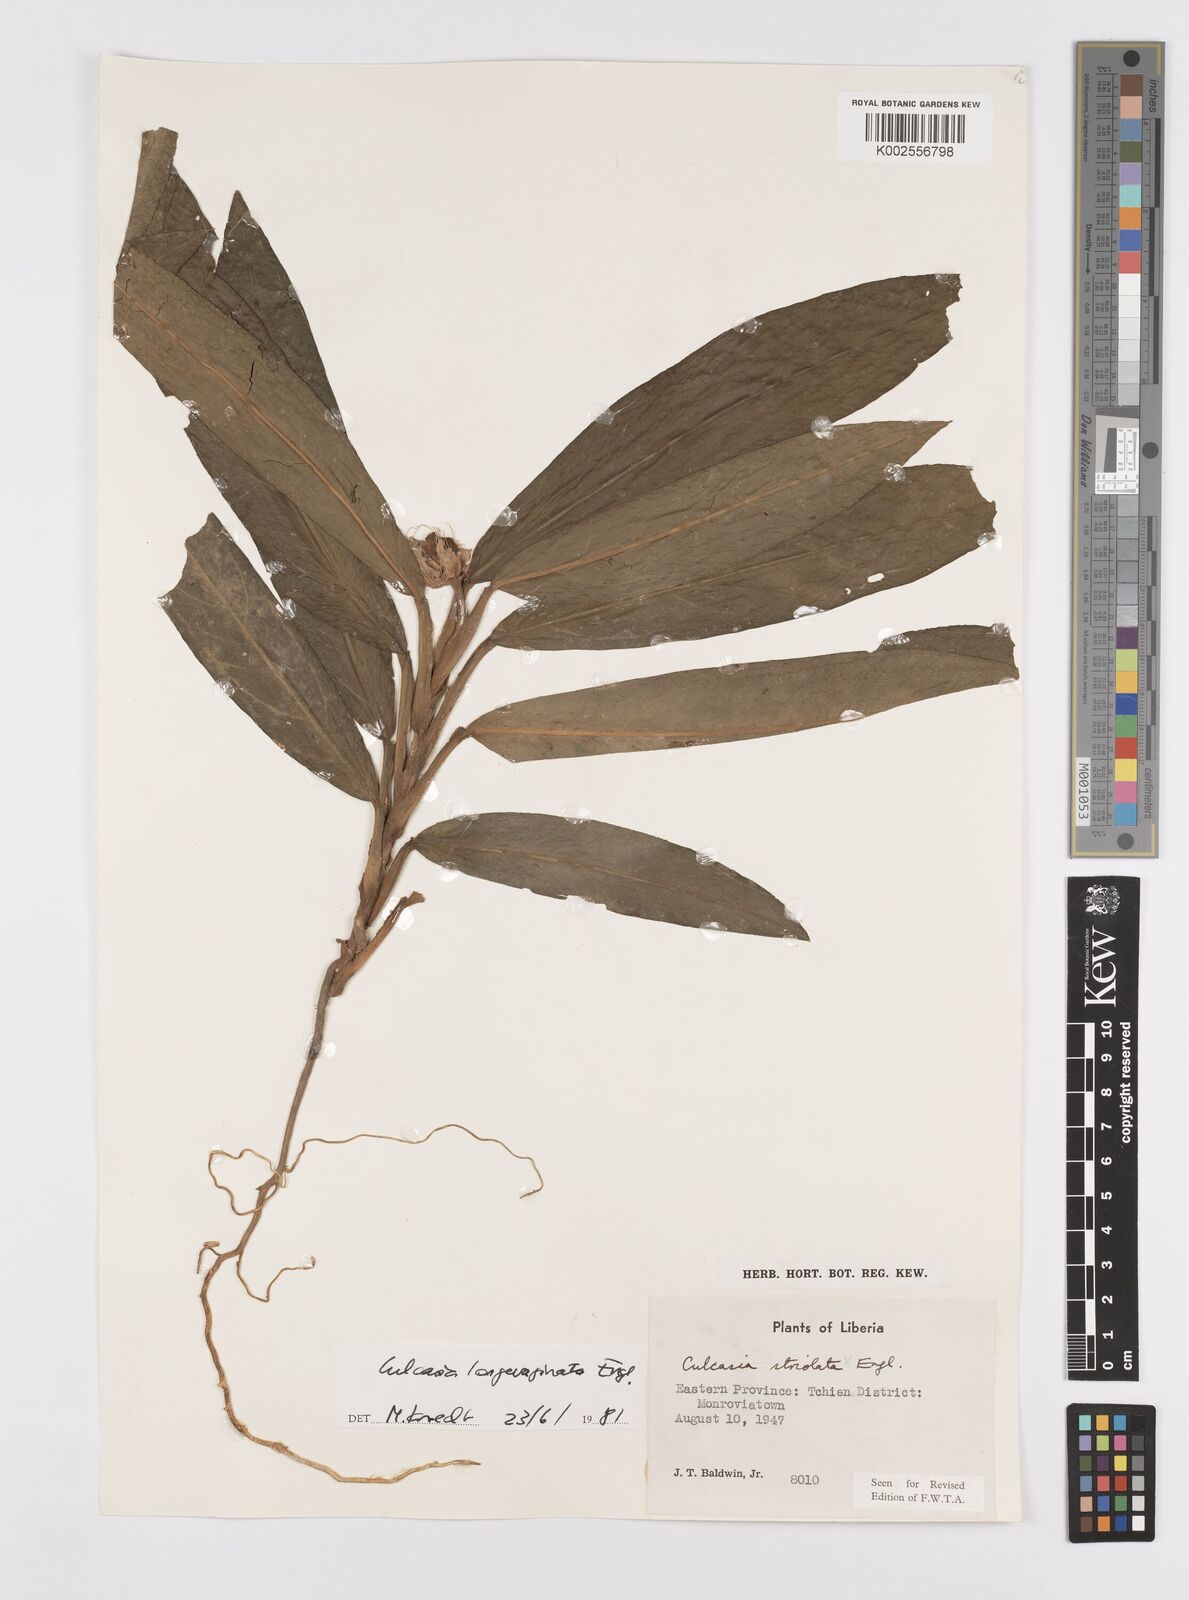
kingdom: Plantae
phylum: Tracheophyta
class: Liliopsida
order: Alismatales
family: Araceae
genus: Culcasia
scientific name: Culcasia striolata
